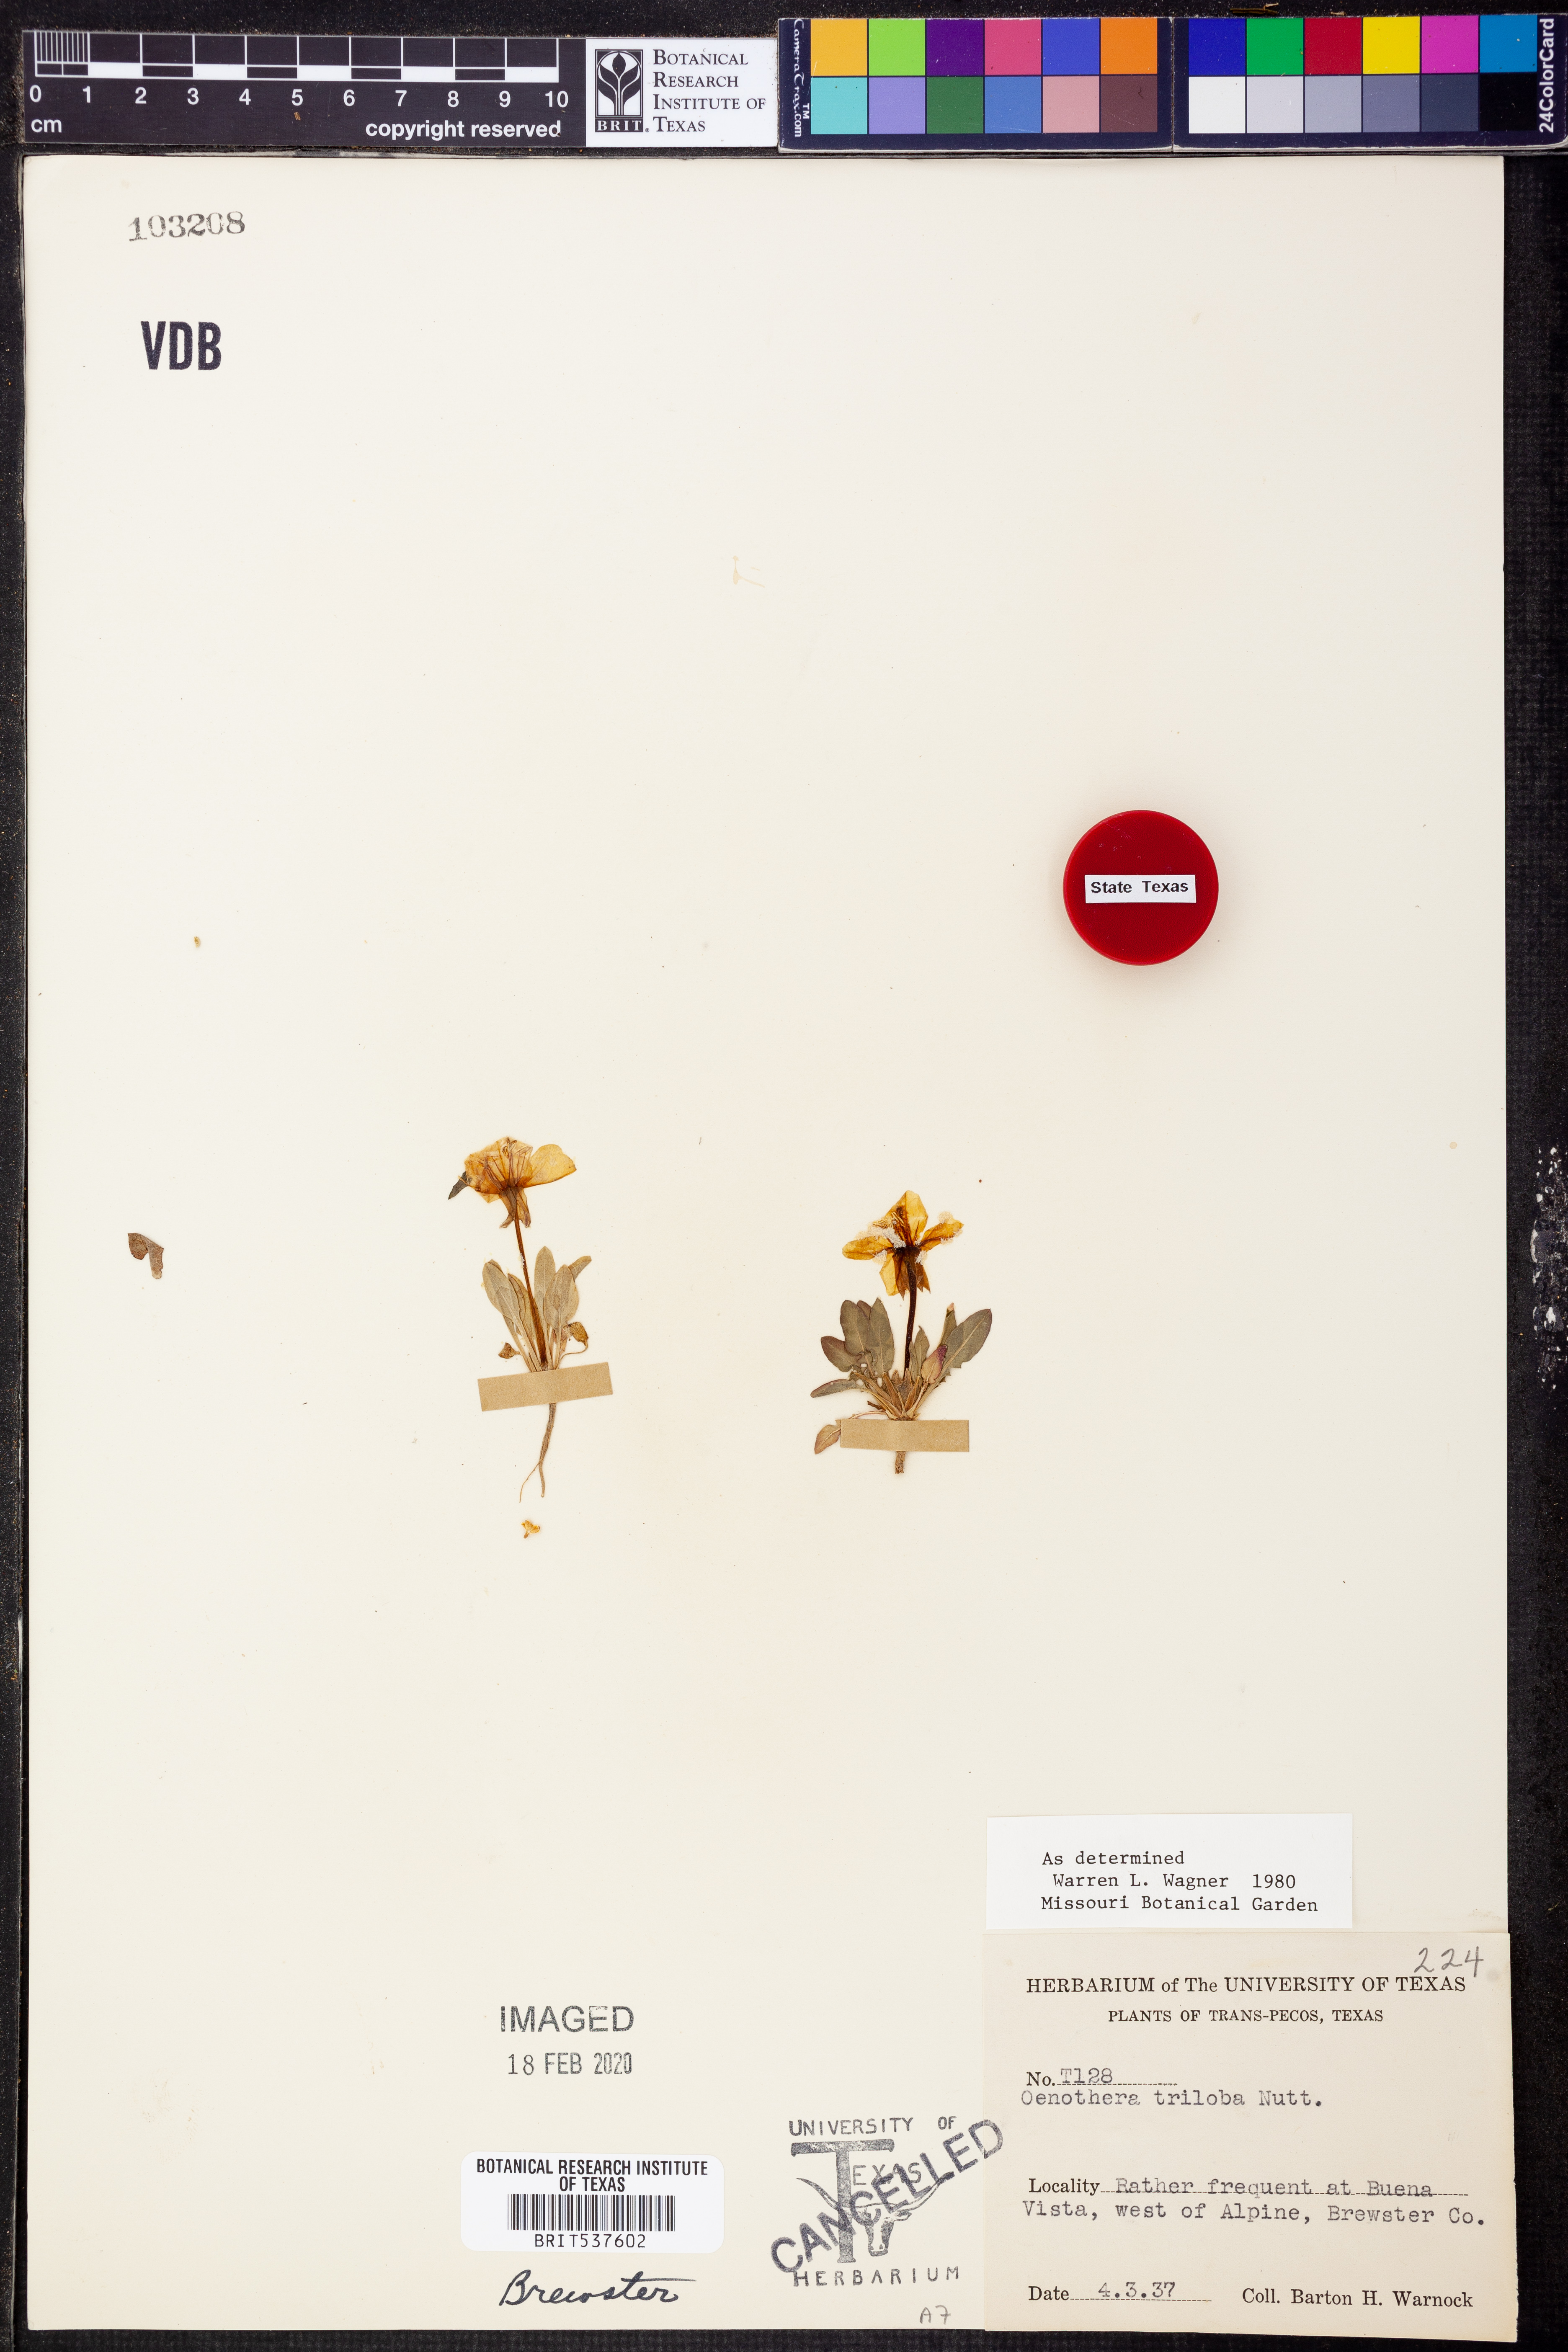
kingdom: Plantae
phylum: Tracheophyta
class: Magnoliopsida
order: Myrtales
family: Onagraceae
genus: Oenothera
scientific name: Oenothera triloba
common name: Sessile evening-primrose
